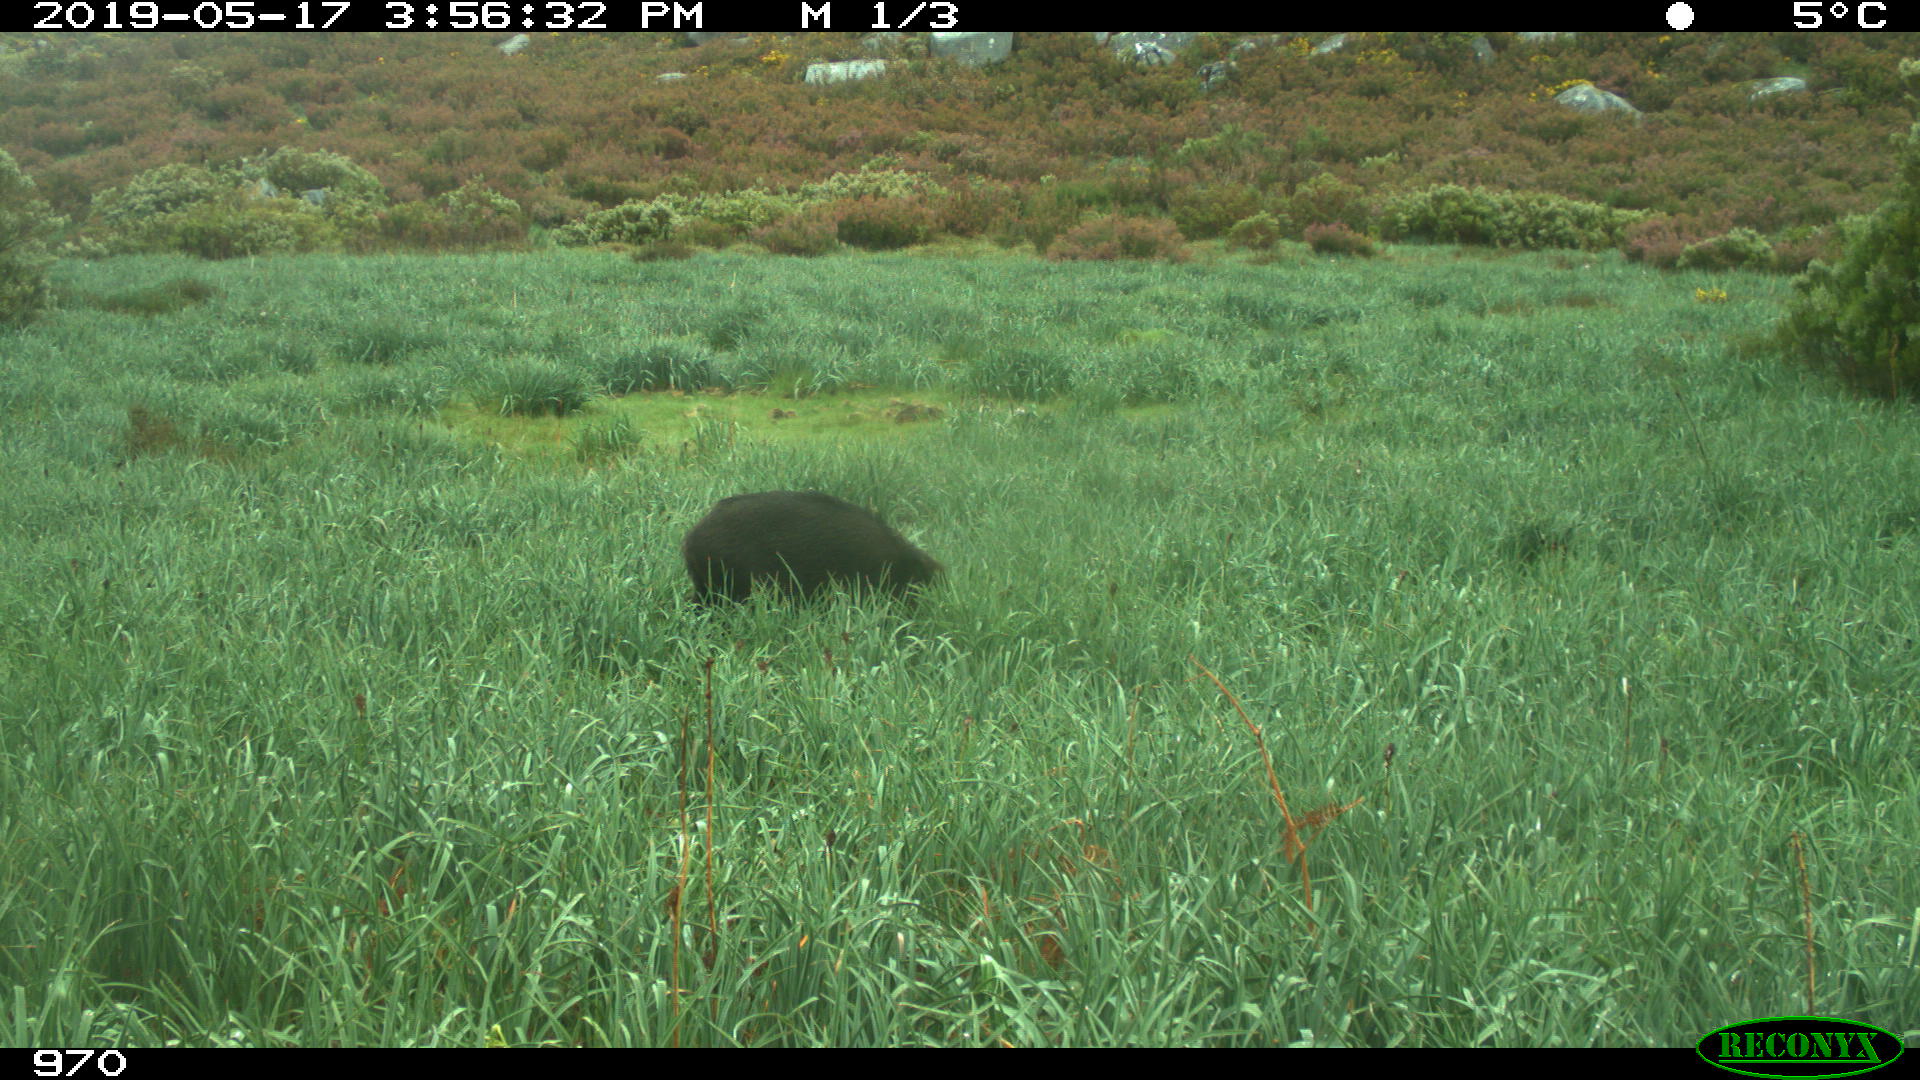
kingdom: Animalia
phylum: Chordata
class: Mammalia
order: Artiodactyla
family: Suidae
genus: Sus
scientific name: Sus scrofa
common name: Wild boar
